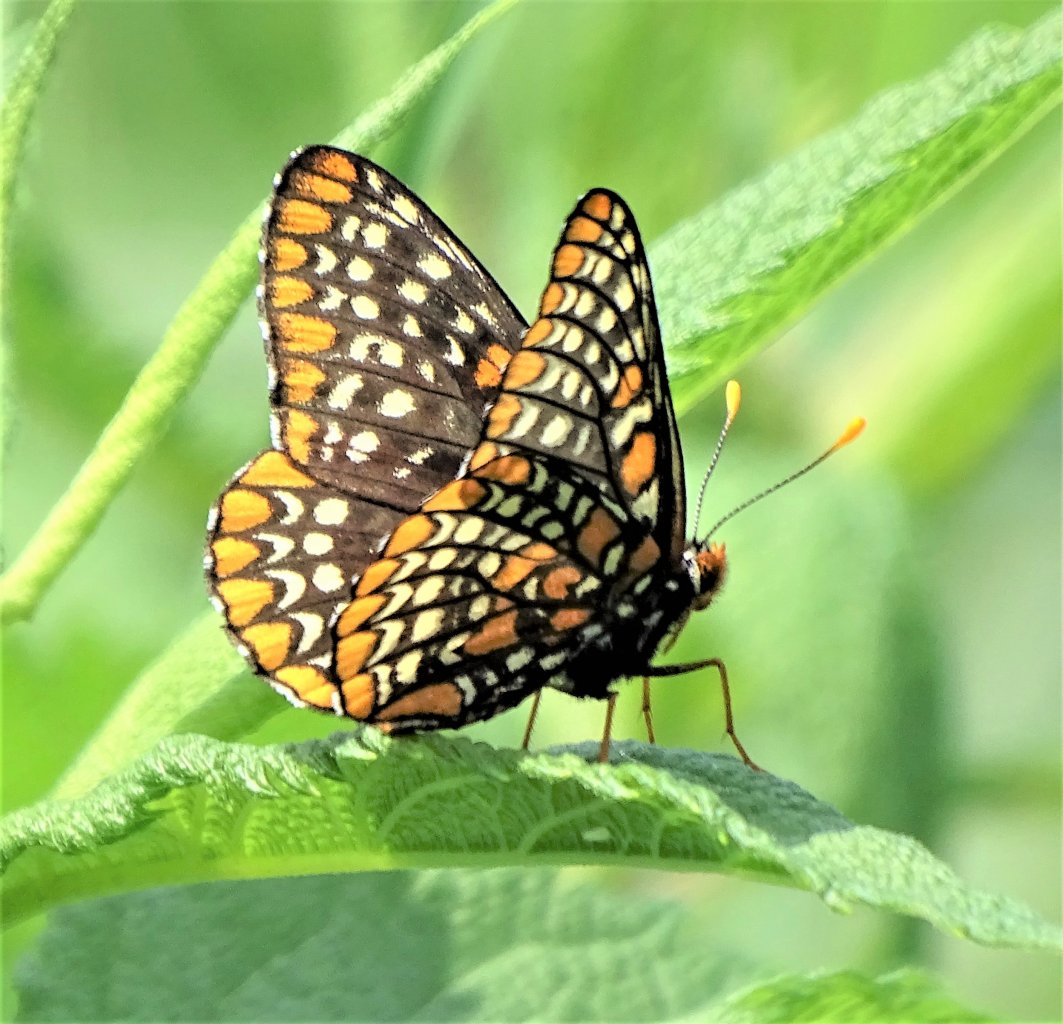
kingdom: Animalia
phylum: Arthropoda
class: Insecta
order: Lepidoptera
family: Nymphalidae
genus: Euphydryas
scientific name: Euphydryas phaeton
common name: Baltimore Checkerspot
